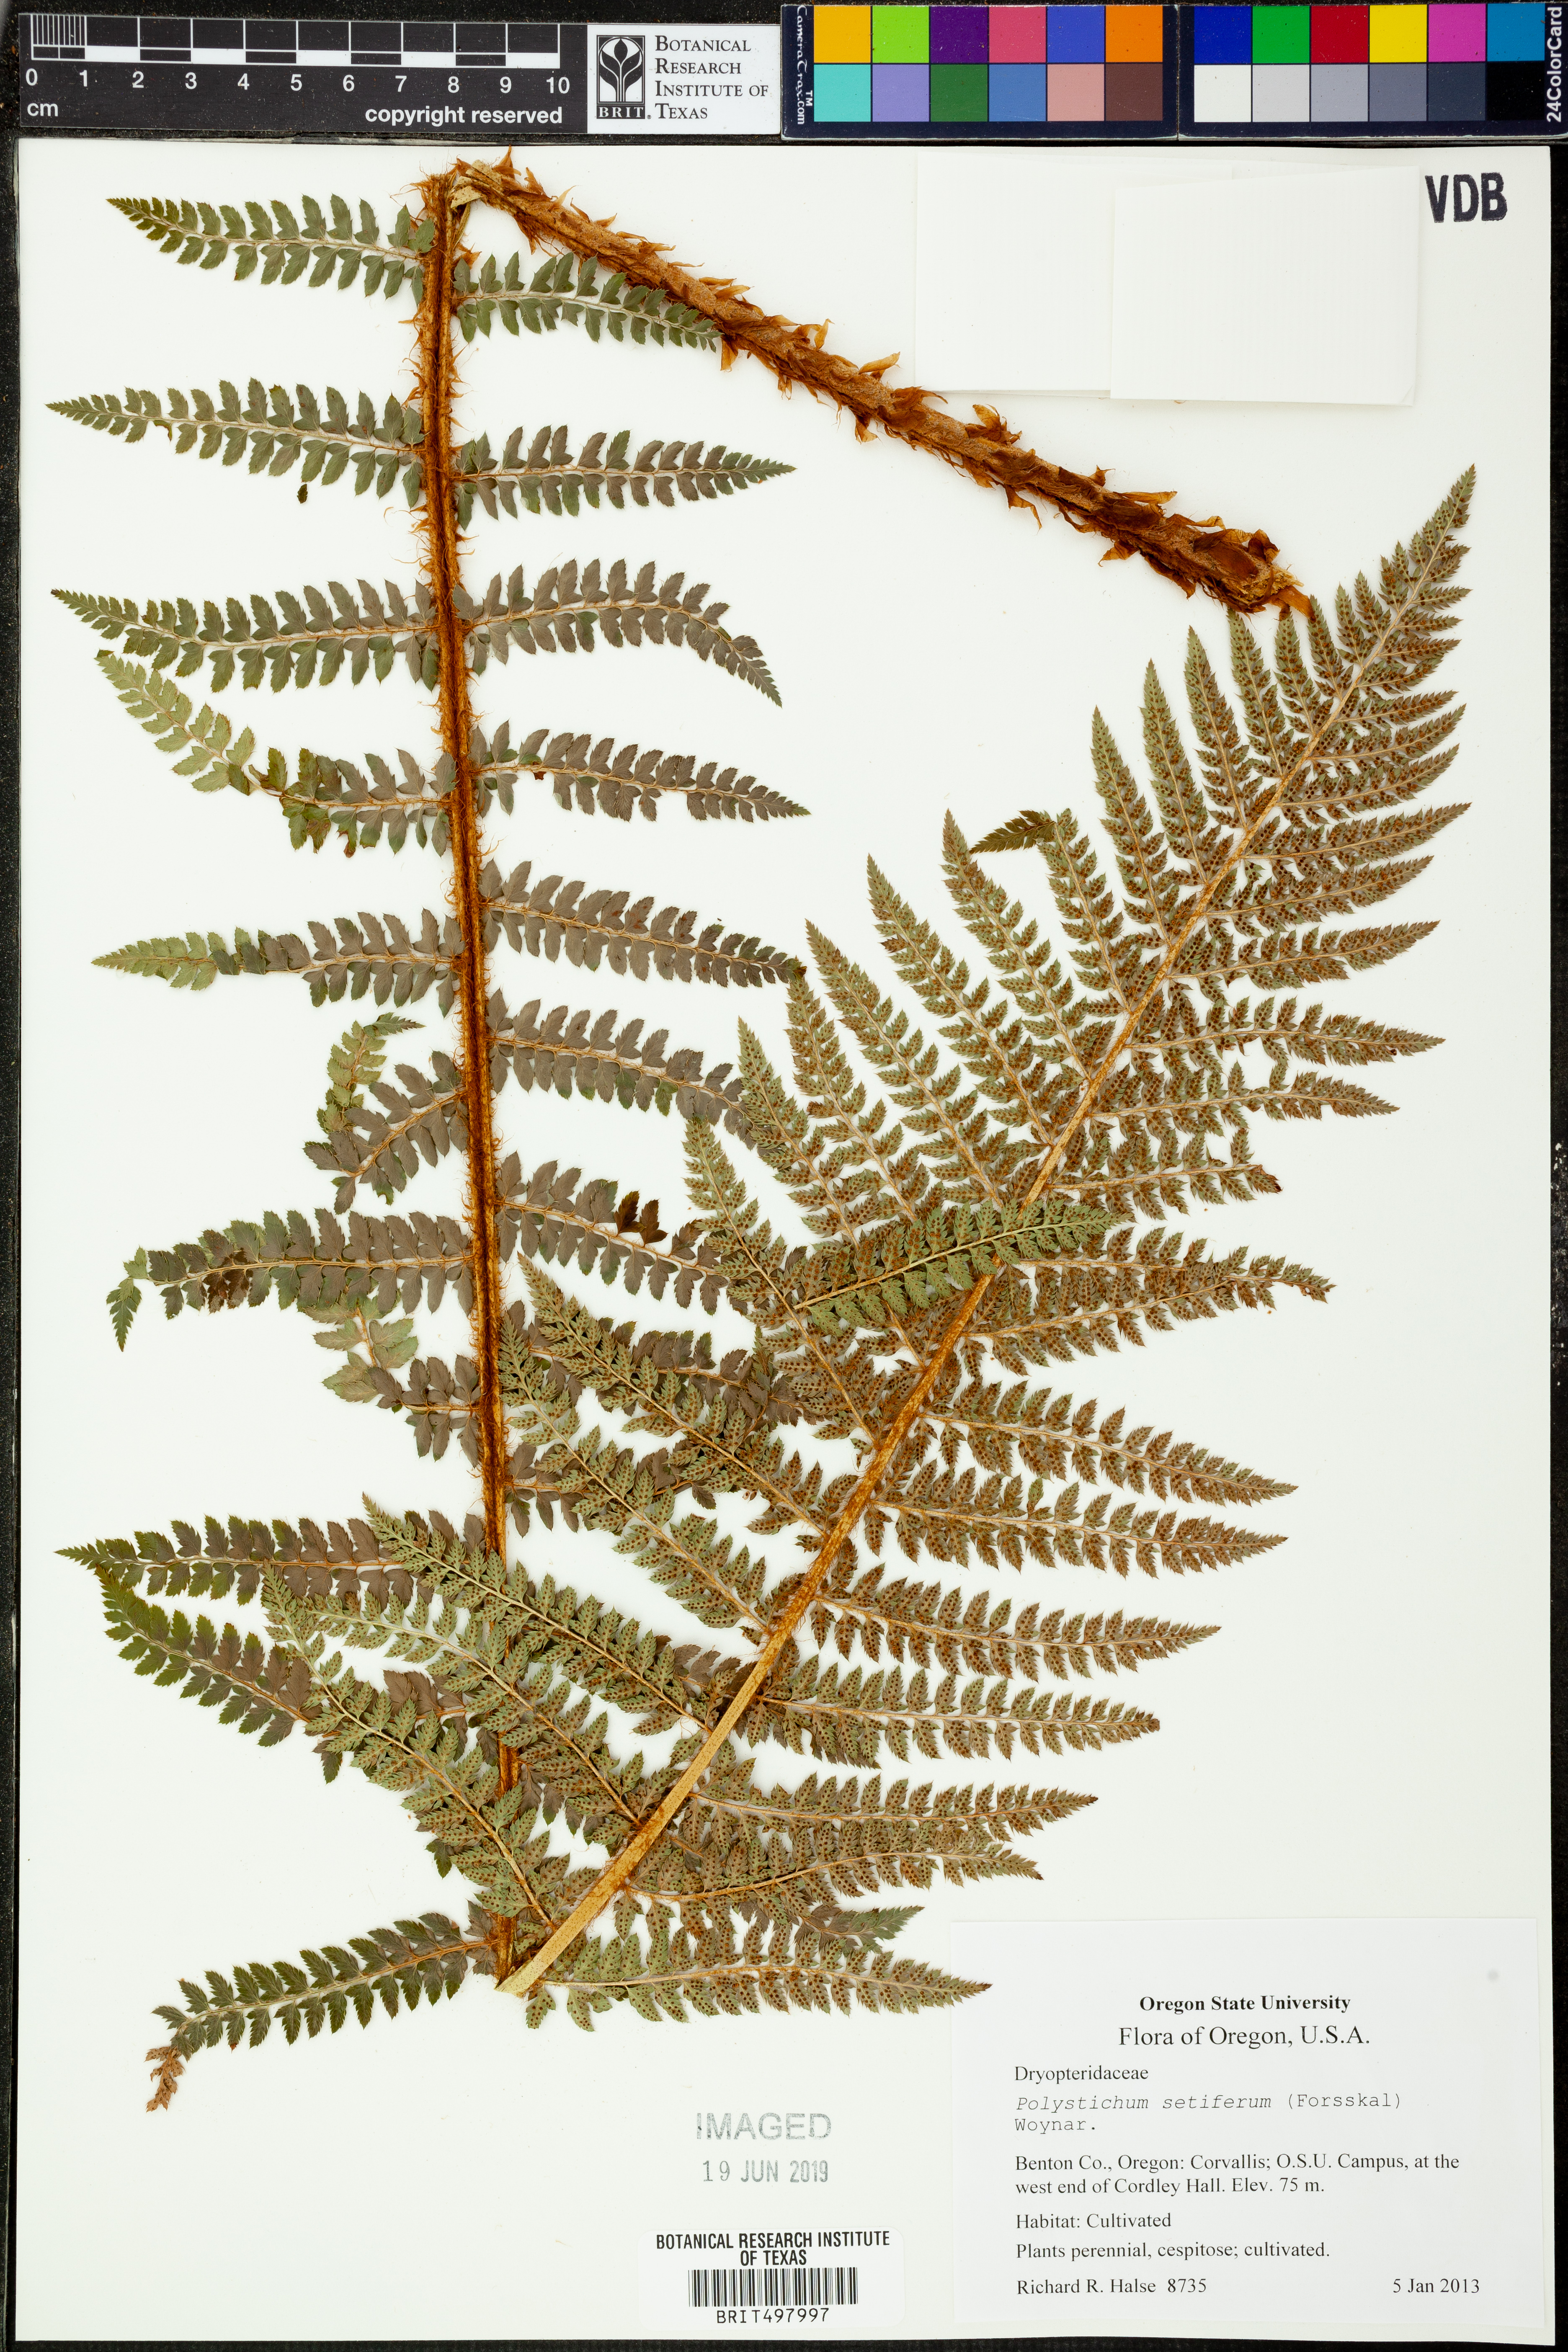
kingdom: Plantae
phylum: Tracheophyta
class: Polypodiopsida
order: Polypodiales
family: Dryopteridaceae
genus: Polystichum
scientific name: Polystichum setiferum
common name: Soft shield-fern
